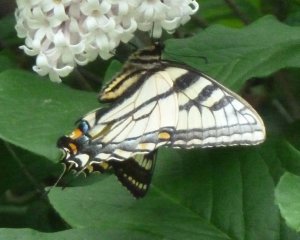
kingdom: Animalia
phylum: Arthropoda
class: Insecta
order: Lepidoptera
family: Papilionidae
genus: Pterourus
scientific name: Pterourus canadensis
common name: Canadian Tiger Swallowtail
